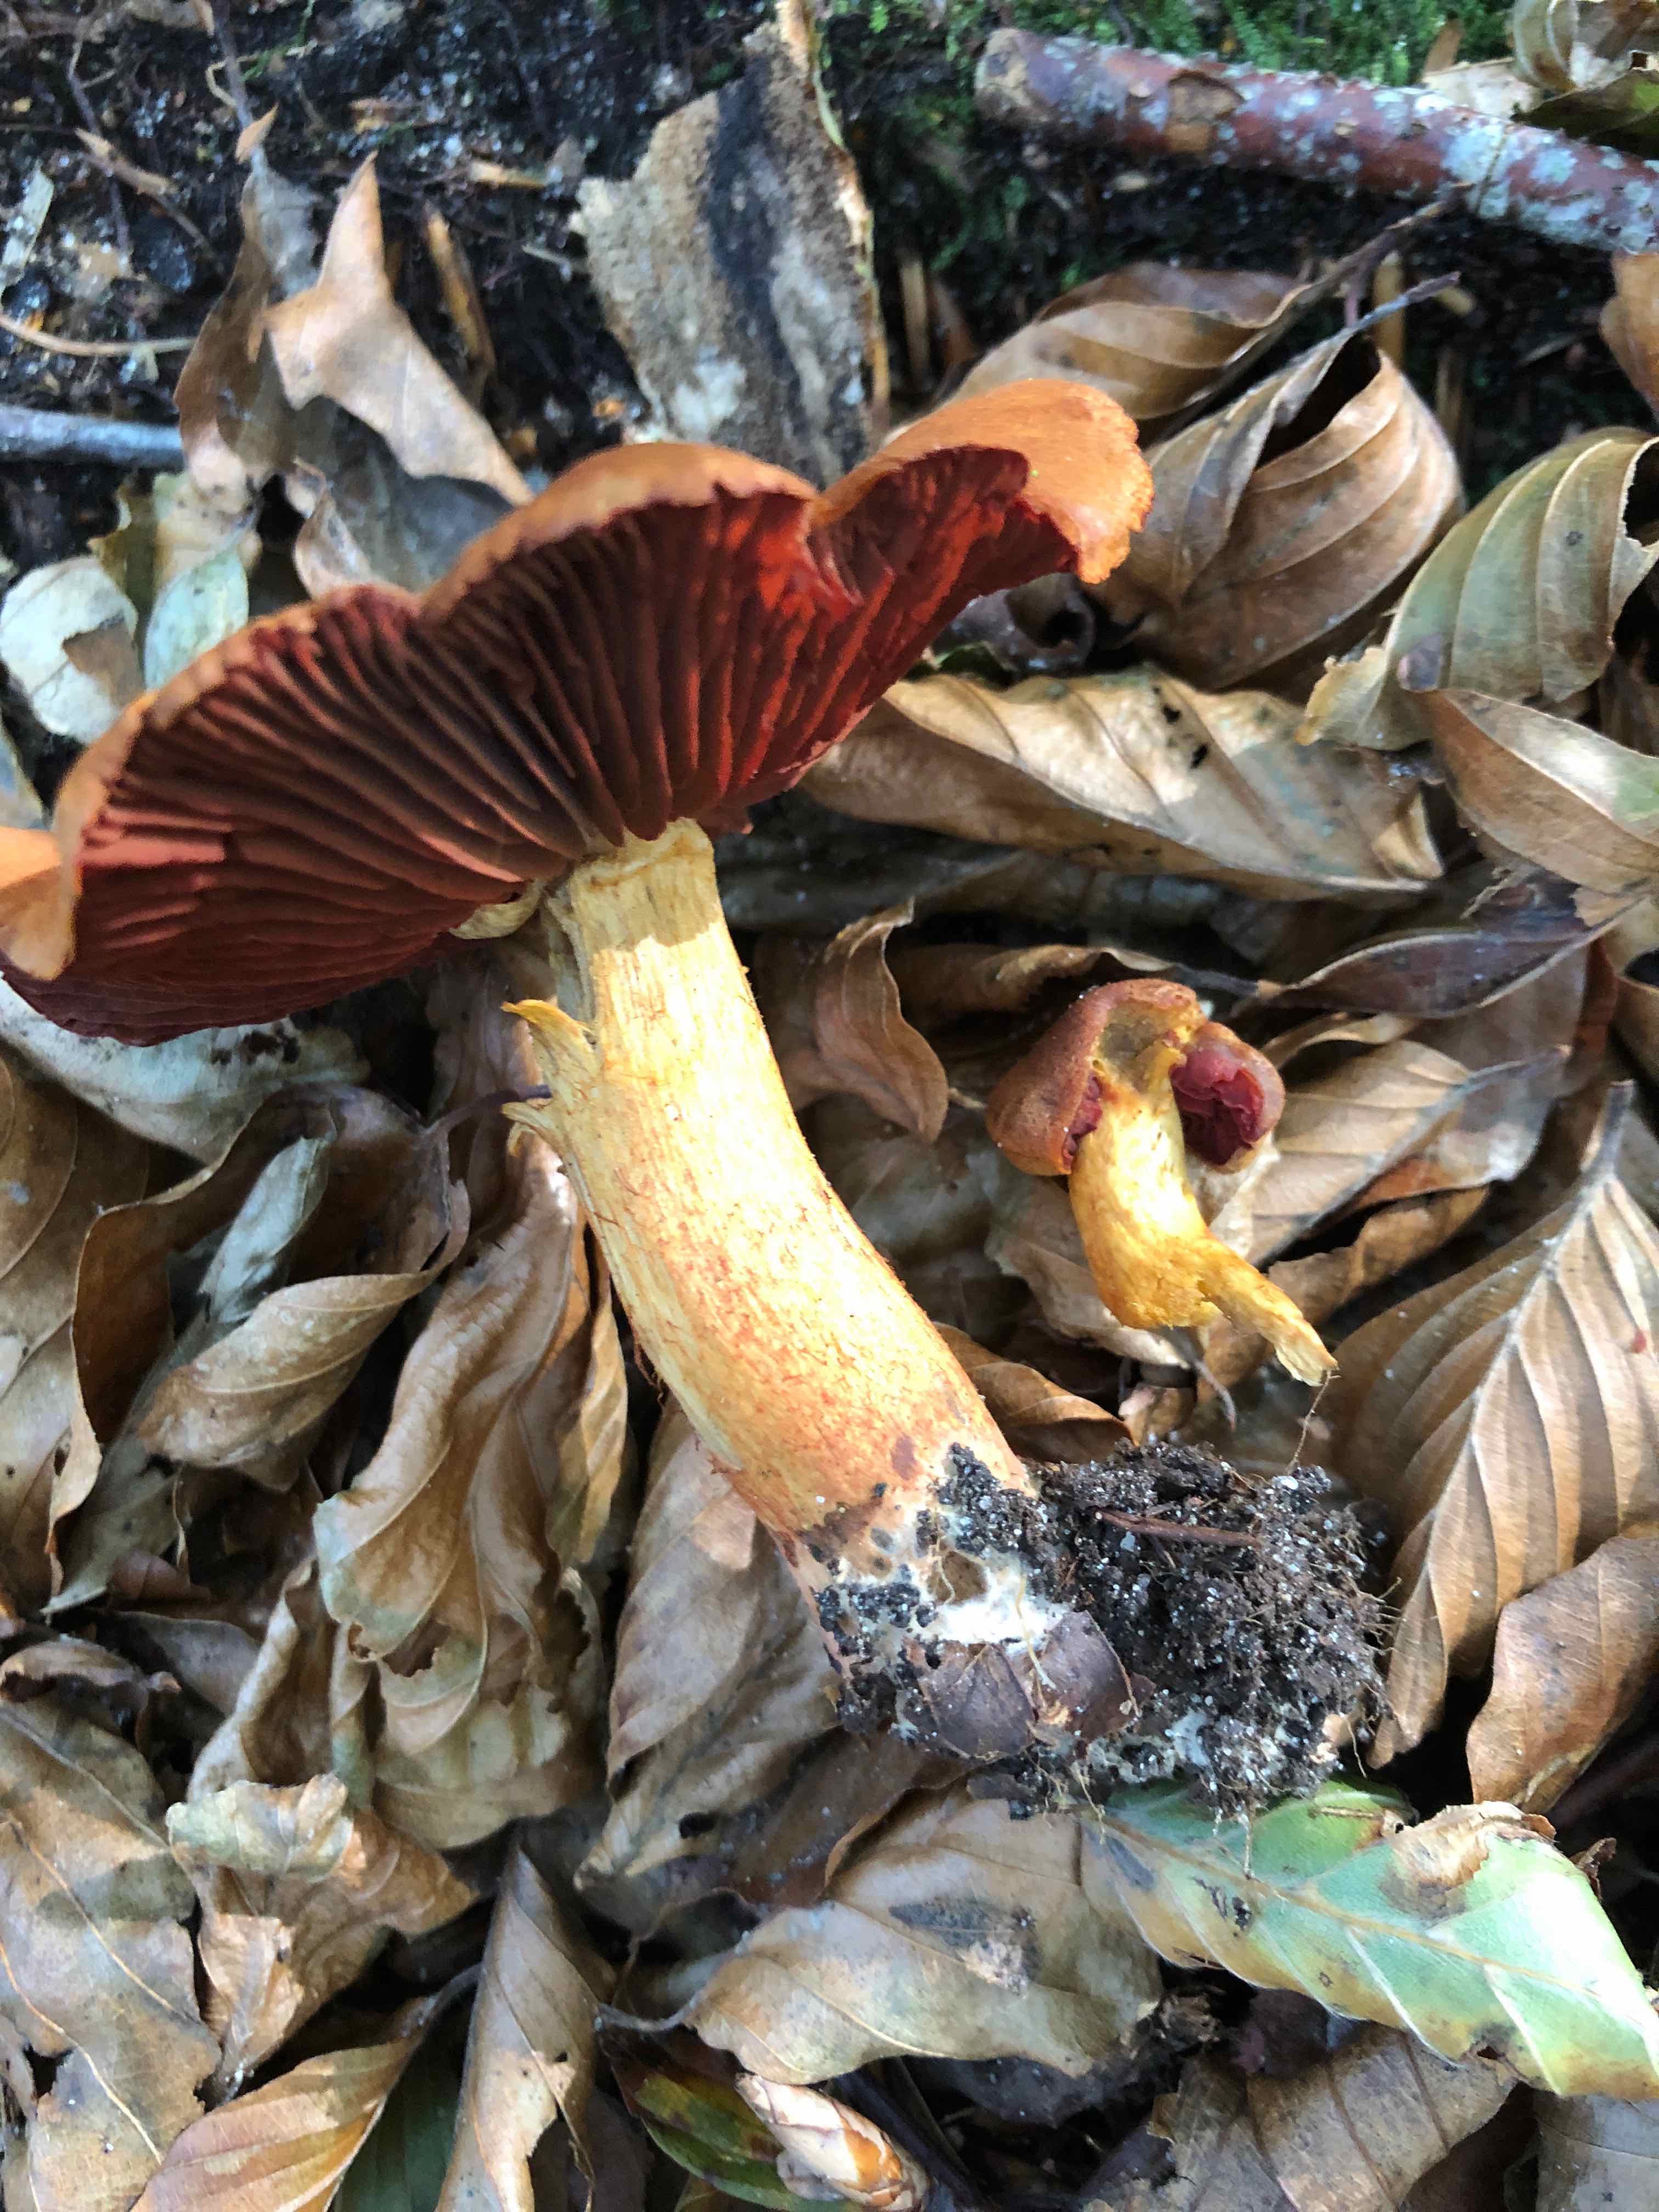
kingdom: Fungi
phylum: Basidiomycota
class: Agaricomycetes
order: Agaricales
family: Cortinariaceae
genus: Cortinarius
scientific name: Cortinarius purpureus
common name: brunrød slørhat
